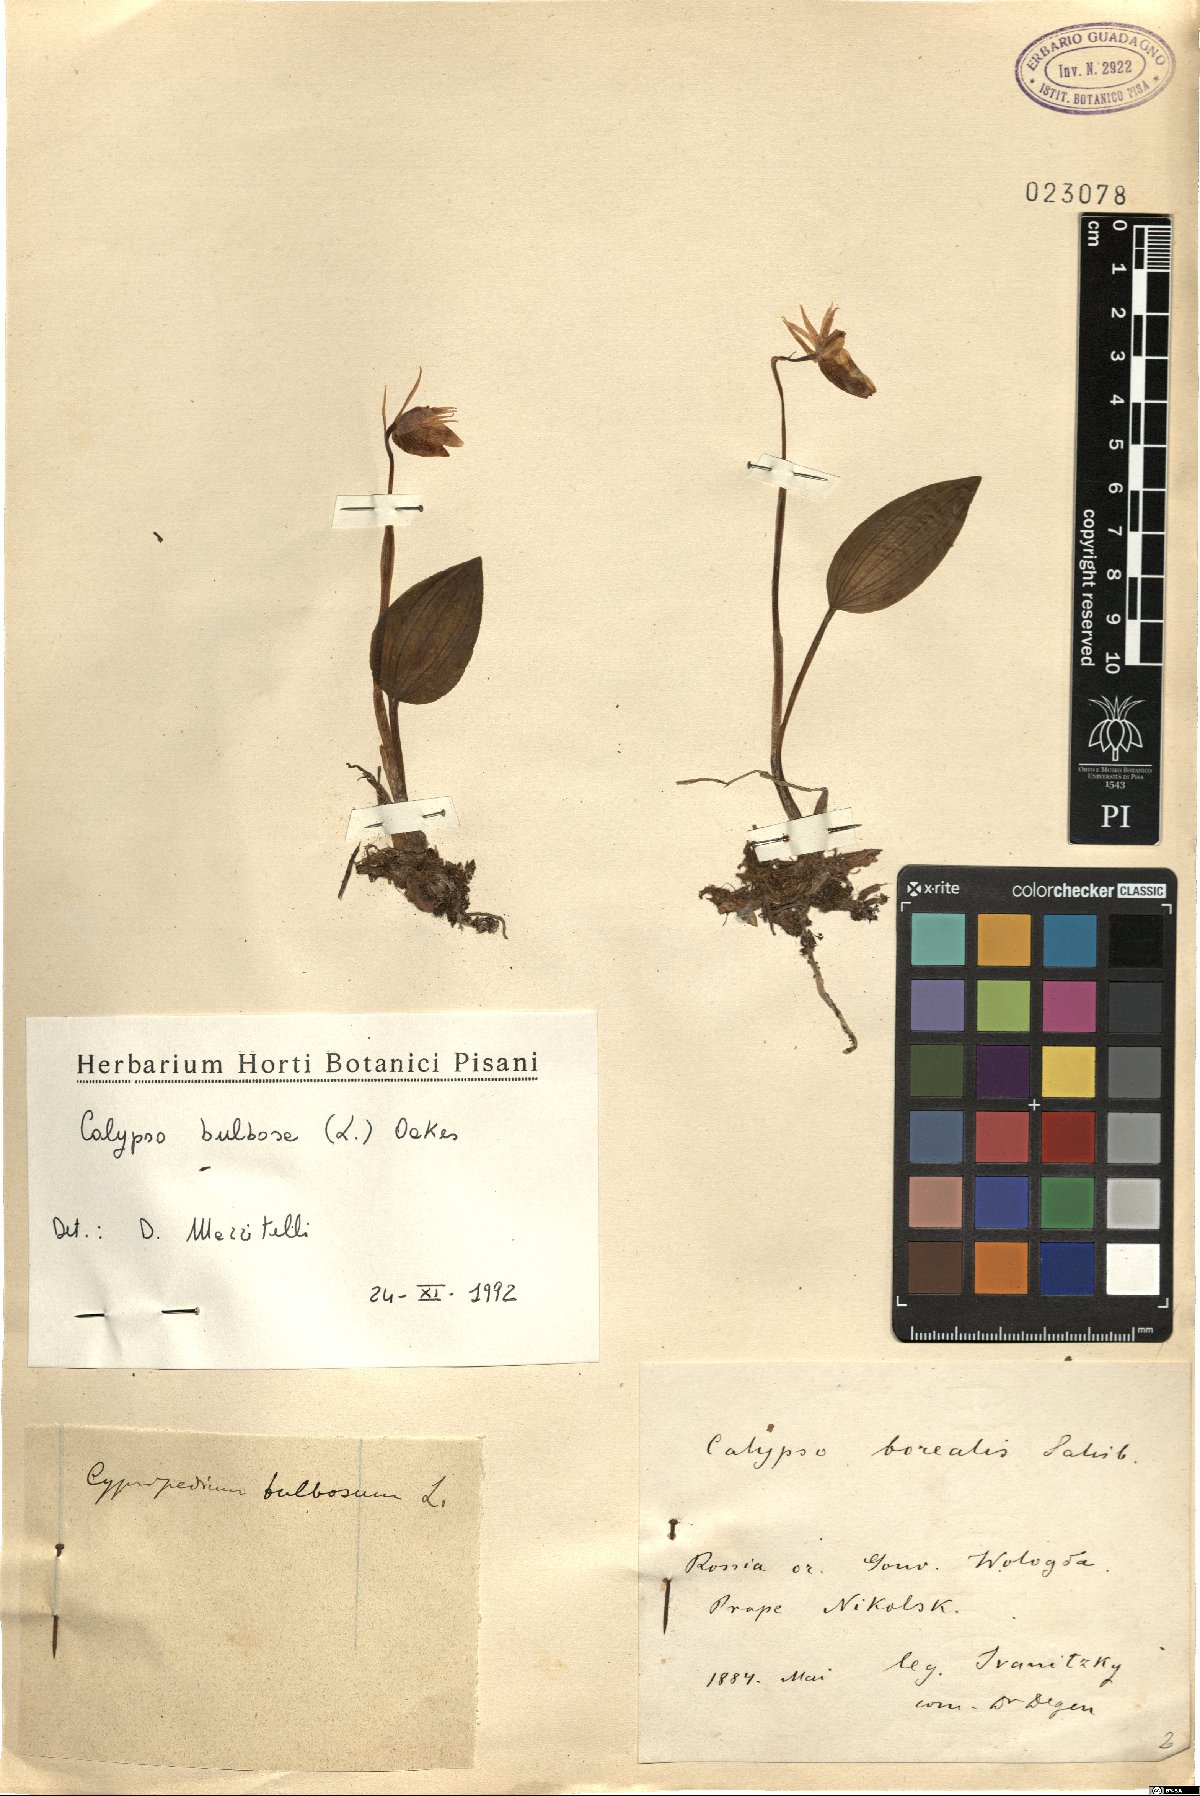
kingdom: Plantae
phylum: Tracheophyta
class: Liliopsida
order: Asparagales
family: Orchidaceae
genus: Calypso
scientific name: Calypso bulbosa
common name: Calypso
